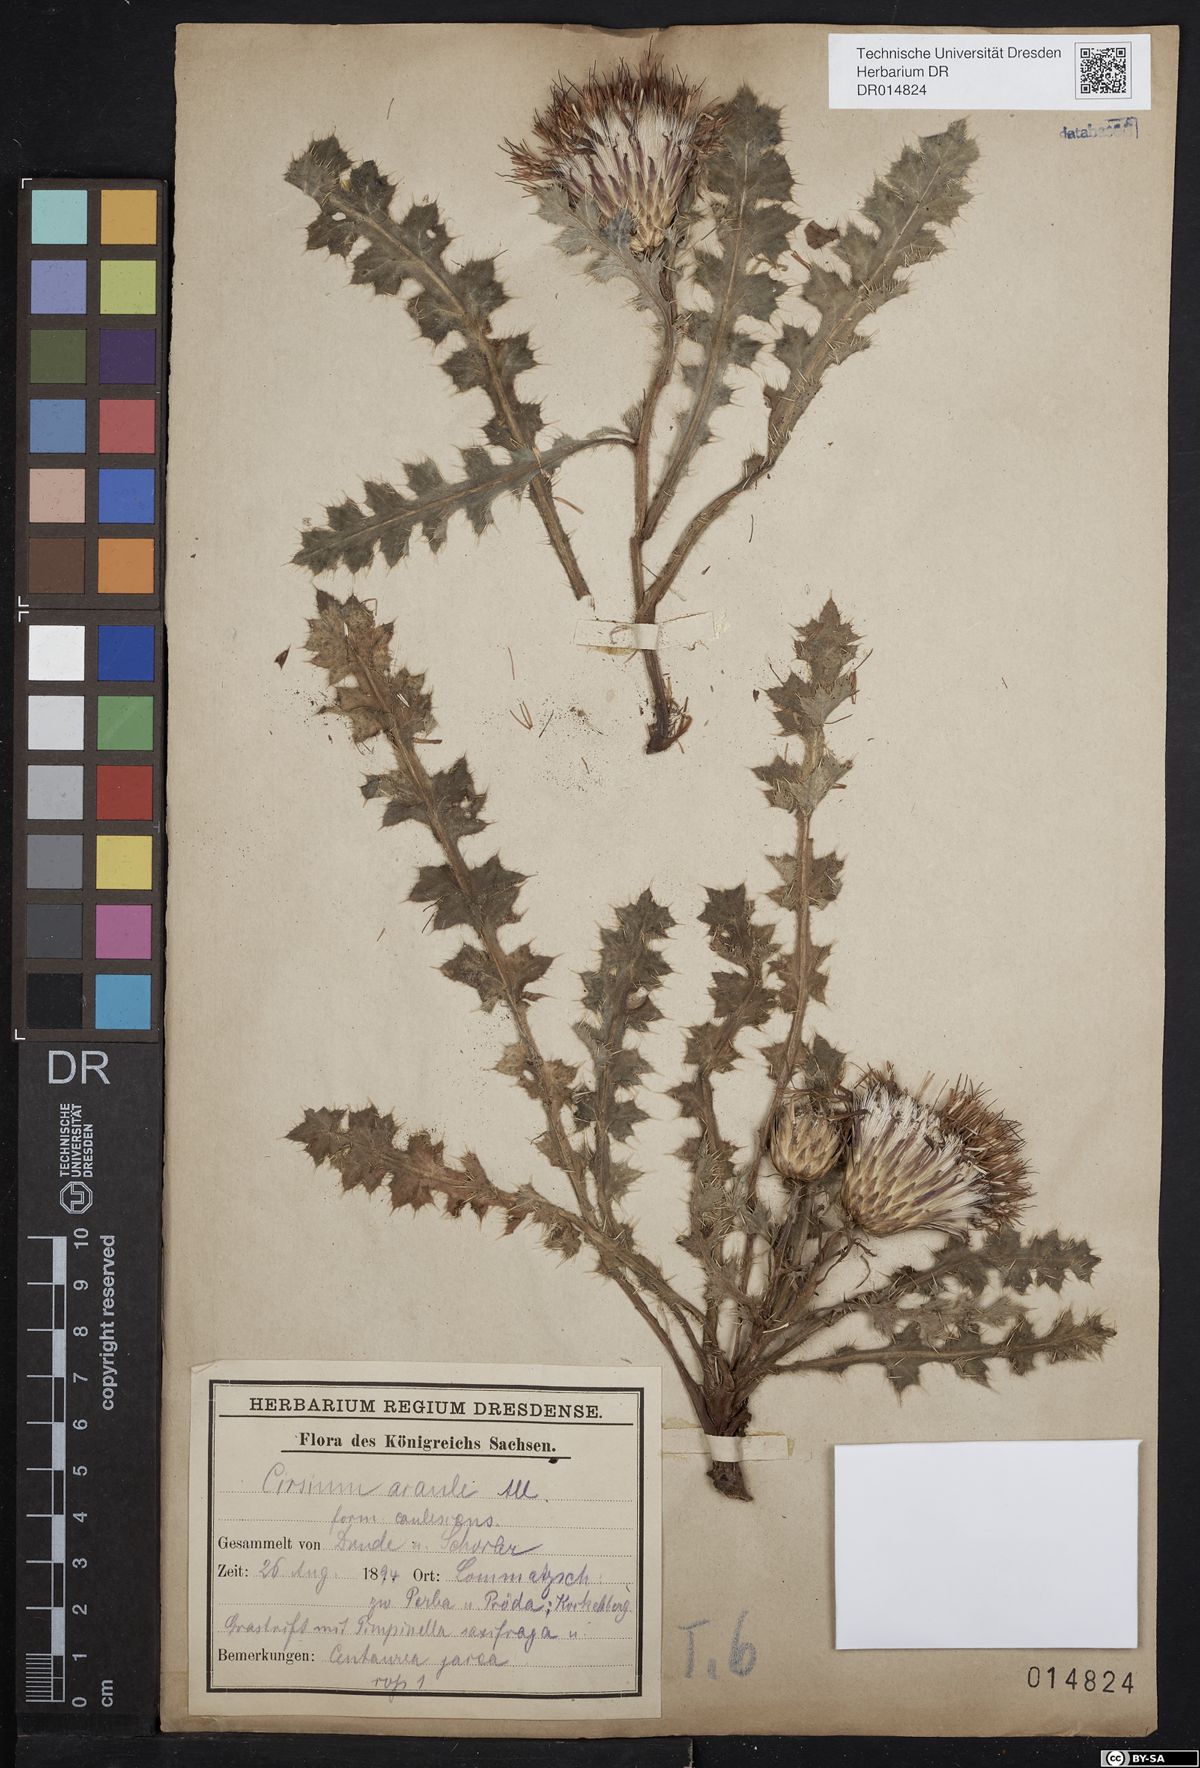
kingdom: Plantae
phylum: Tracheophyta
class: Magnoliopsida
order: Asterales
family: Asteraceae
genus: Cirsium
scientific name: Cirsium acaulon
